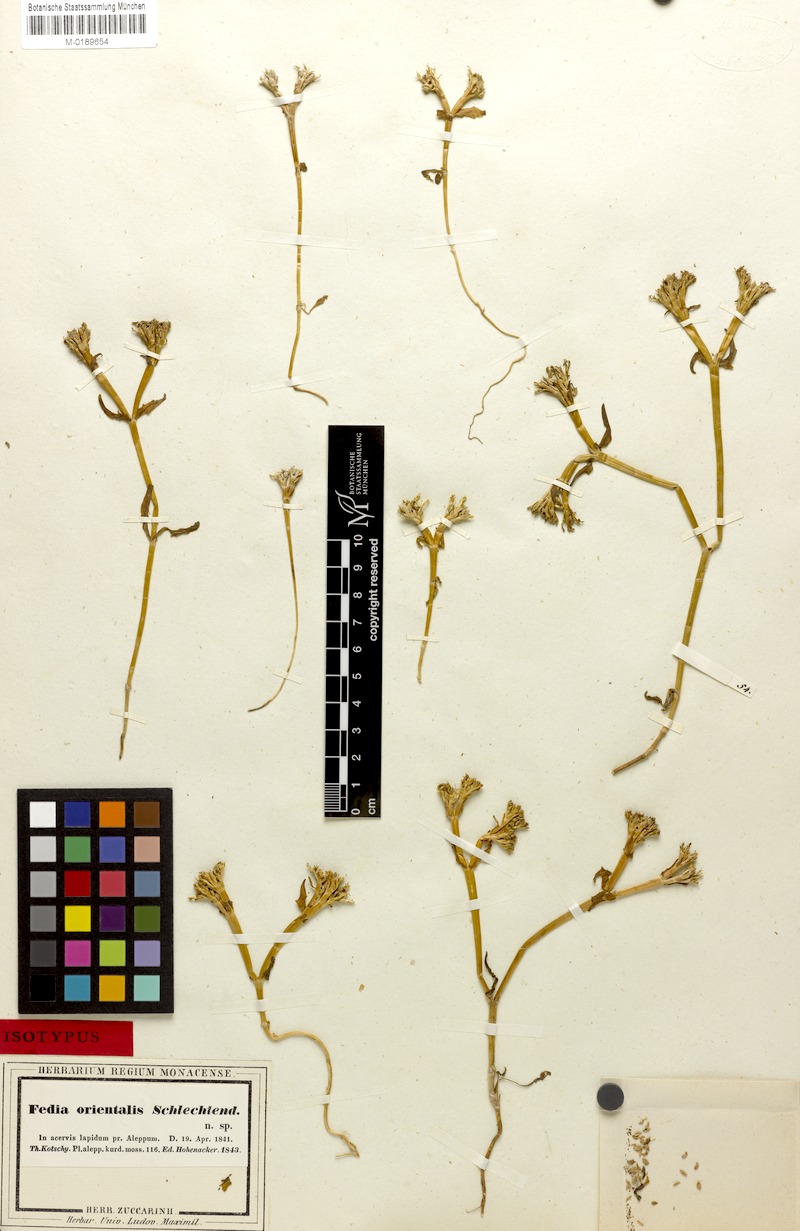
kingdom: Plantae
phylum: Tracheophyta
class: Magnoliopsida
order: Dipsacales
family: Caprifoliaceae
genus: Valerianella
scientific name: Valerianella orientalis
